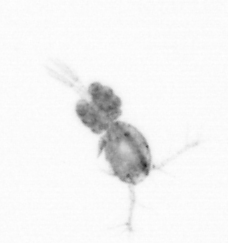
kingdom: Animalia
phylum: Arthropoda
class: Copepoda
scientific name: Copepoda
